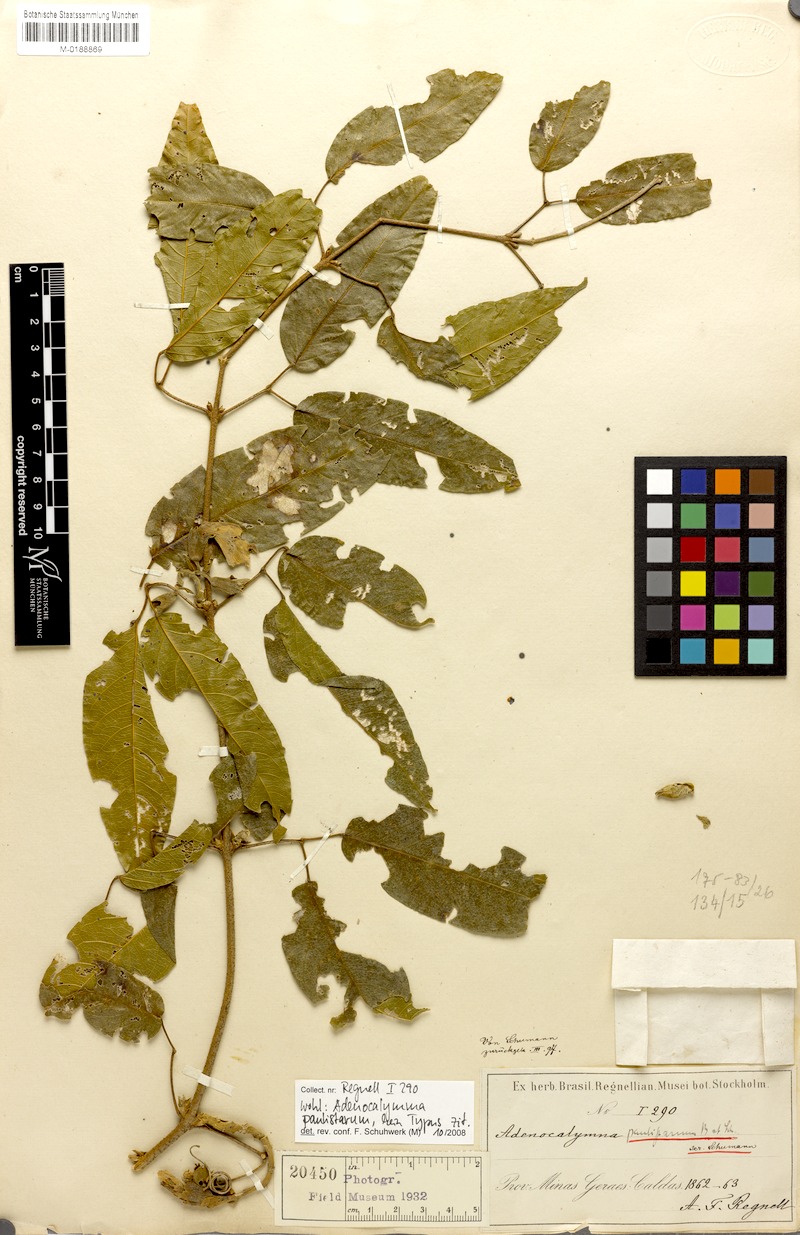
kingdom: Plantae
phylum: Tracheophyta
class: Magnoliopsida
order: Lamiales
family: Bignoniaceae
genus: Adenocalymma
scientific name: Adenocalymma paulistarum
